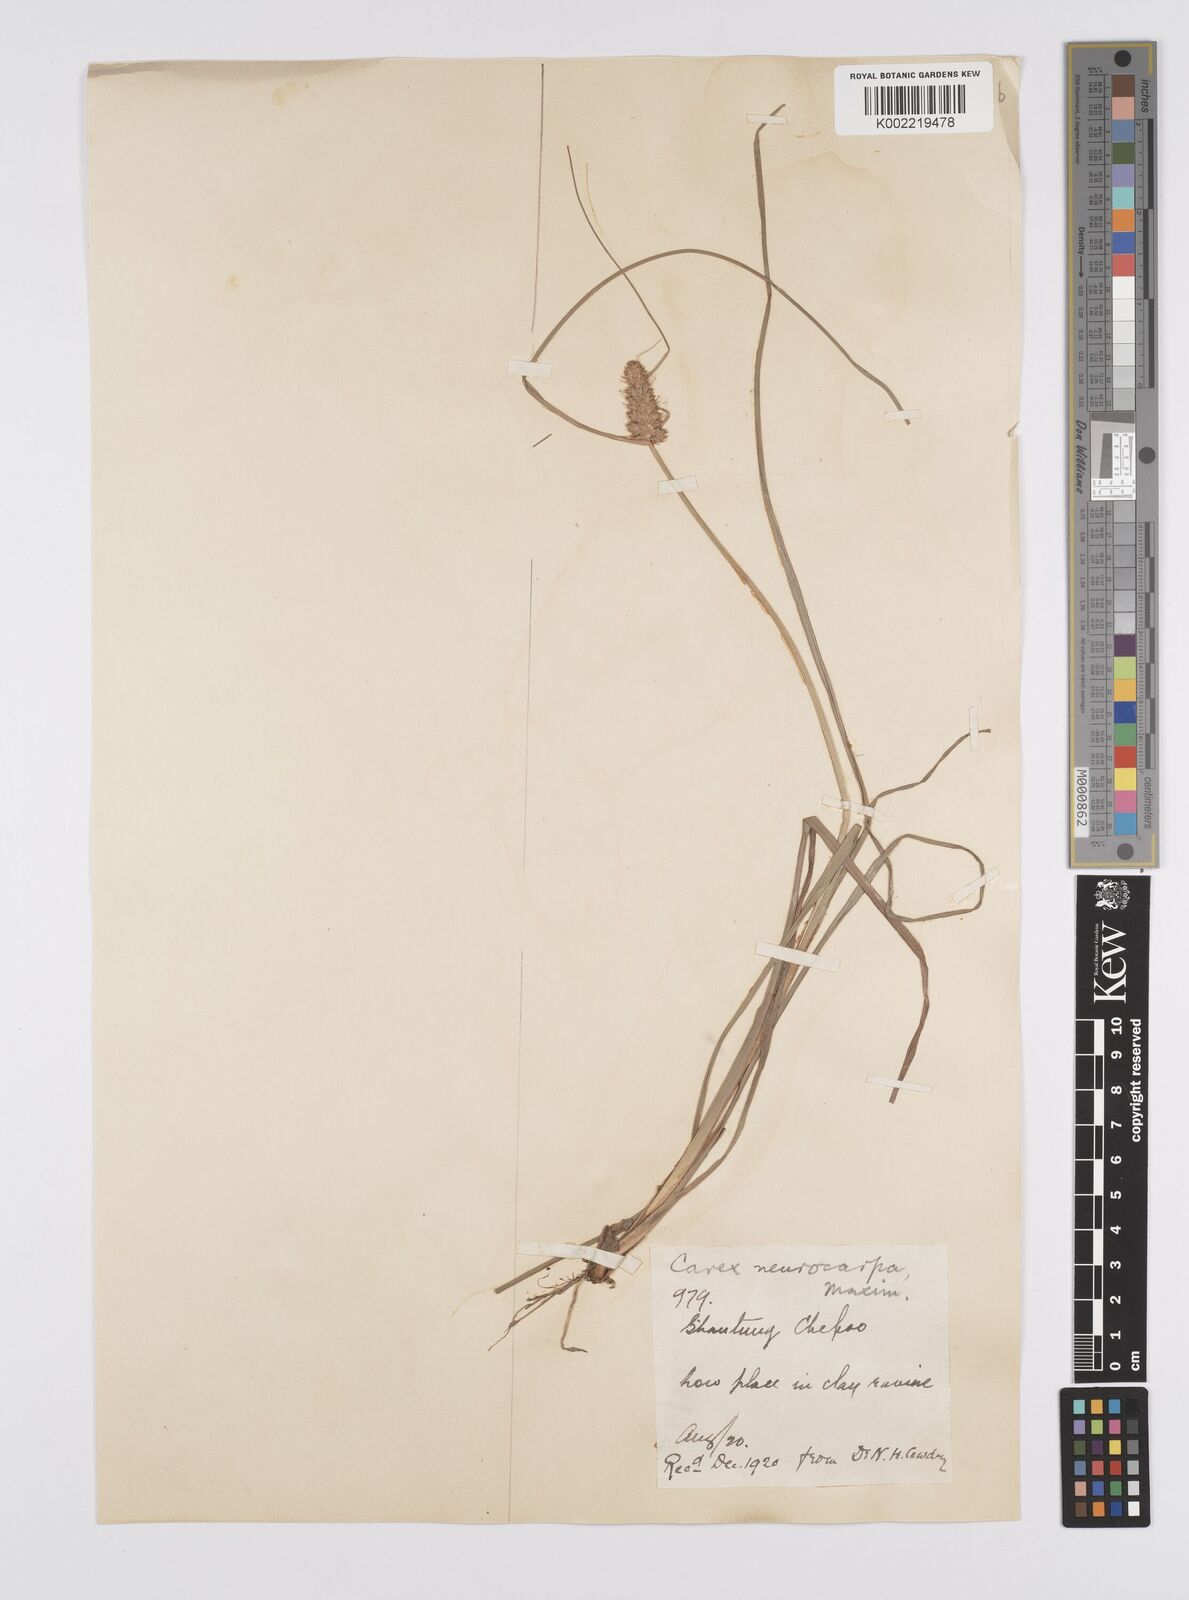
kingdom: Plantae
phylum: Tracheophyta
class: Liliopsida
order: Poales
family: Cyperaceae
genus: Carex
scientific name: Carex neurocarpa
